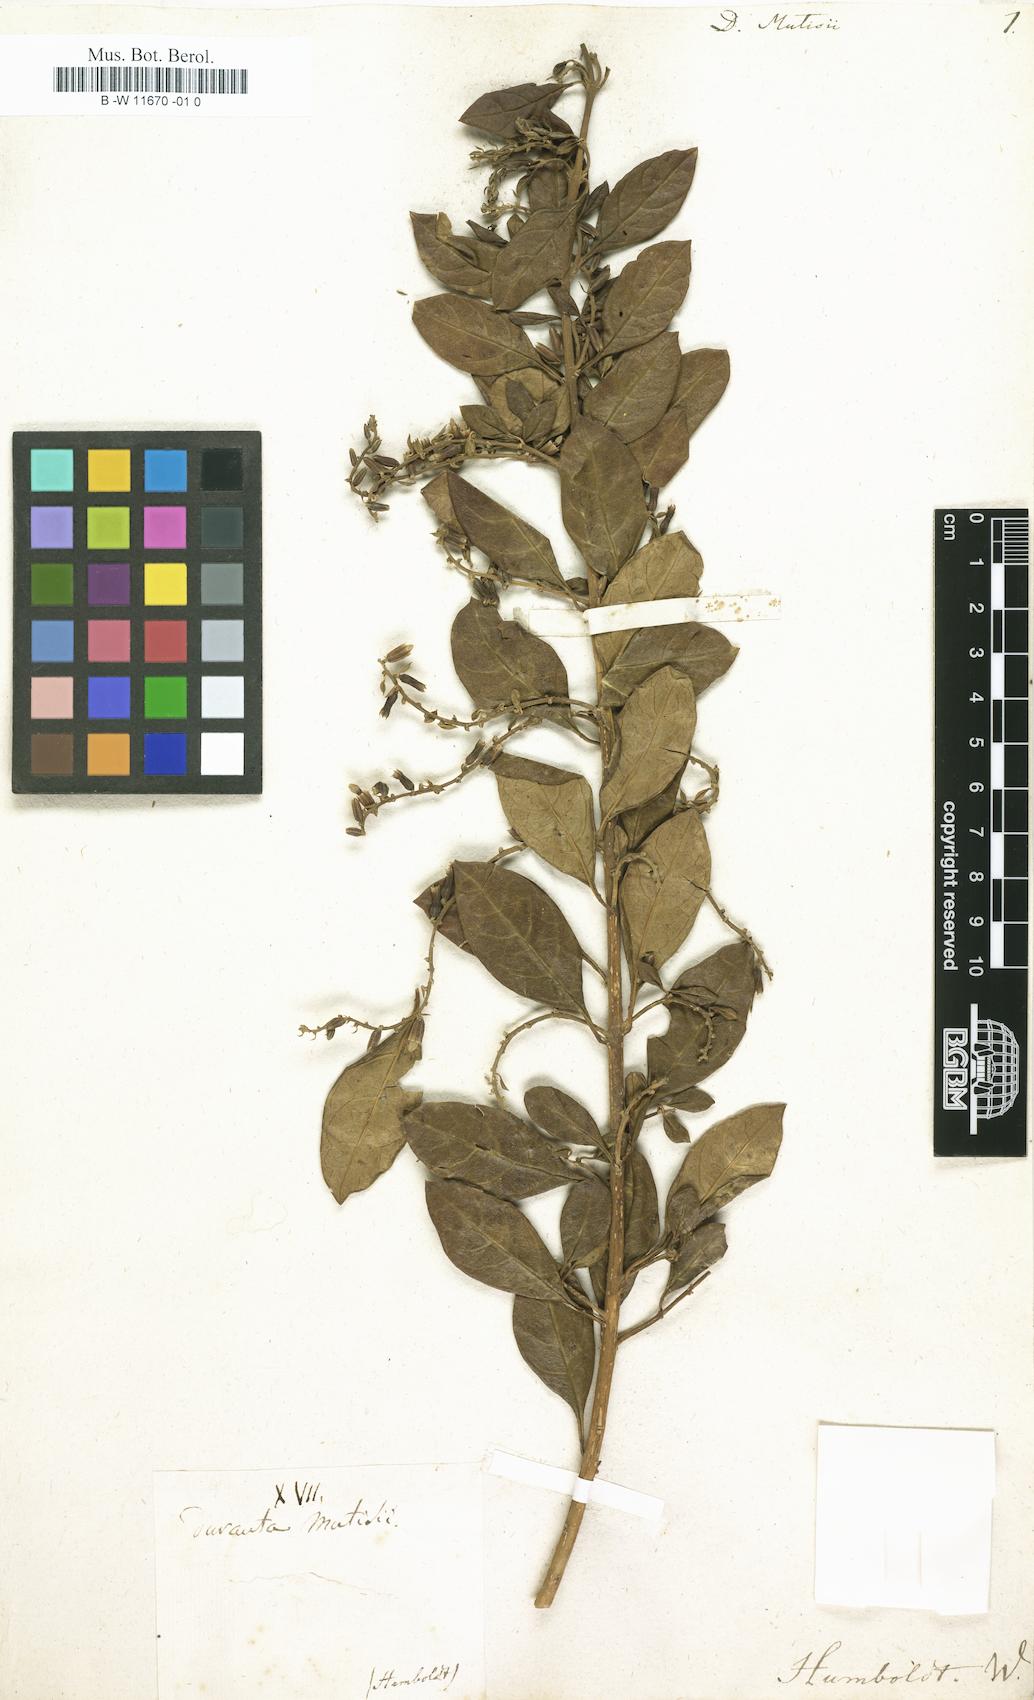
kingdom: Plantae
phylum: Tracheophyta
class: Magnoliopsida
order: Lamiales
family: Verbenaceae
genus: Duranta
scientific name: Duranta mutisii
